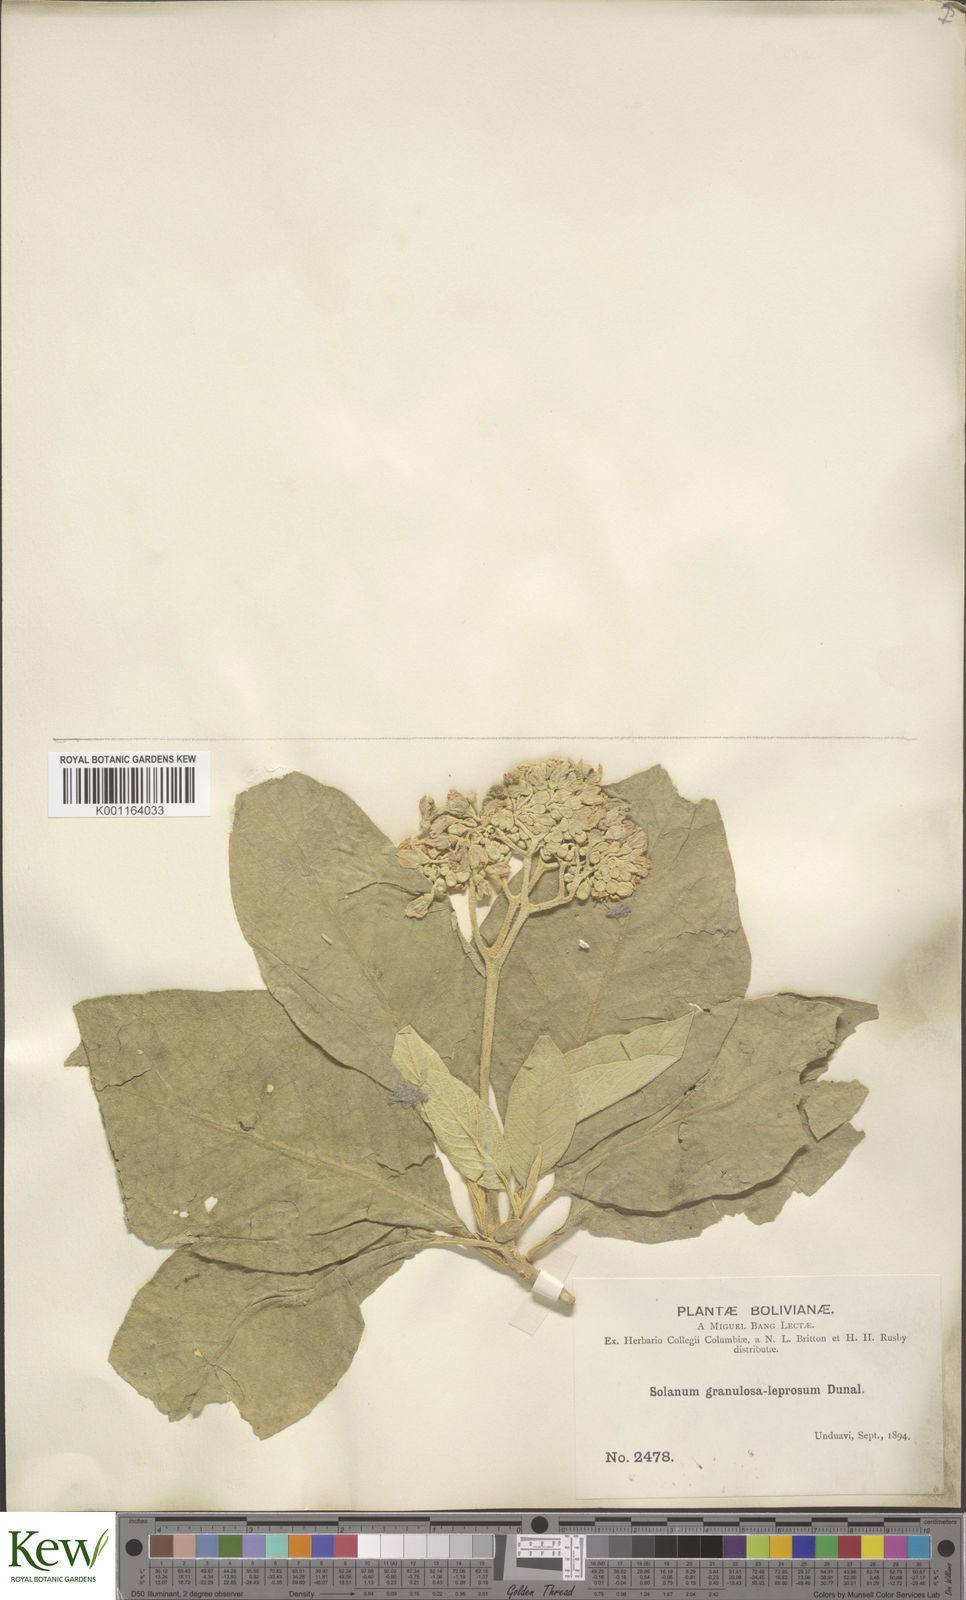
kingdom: Plantae
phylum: Tracheophyta
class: Magnoliopsida
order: Solanales
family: Solanaceae
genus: Solanum
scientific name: Solanum granulosoleprosum
